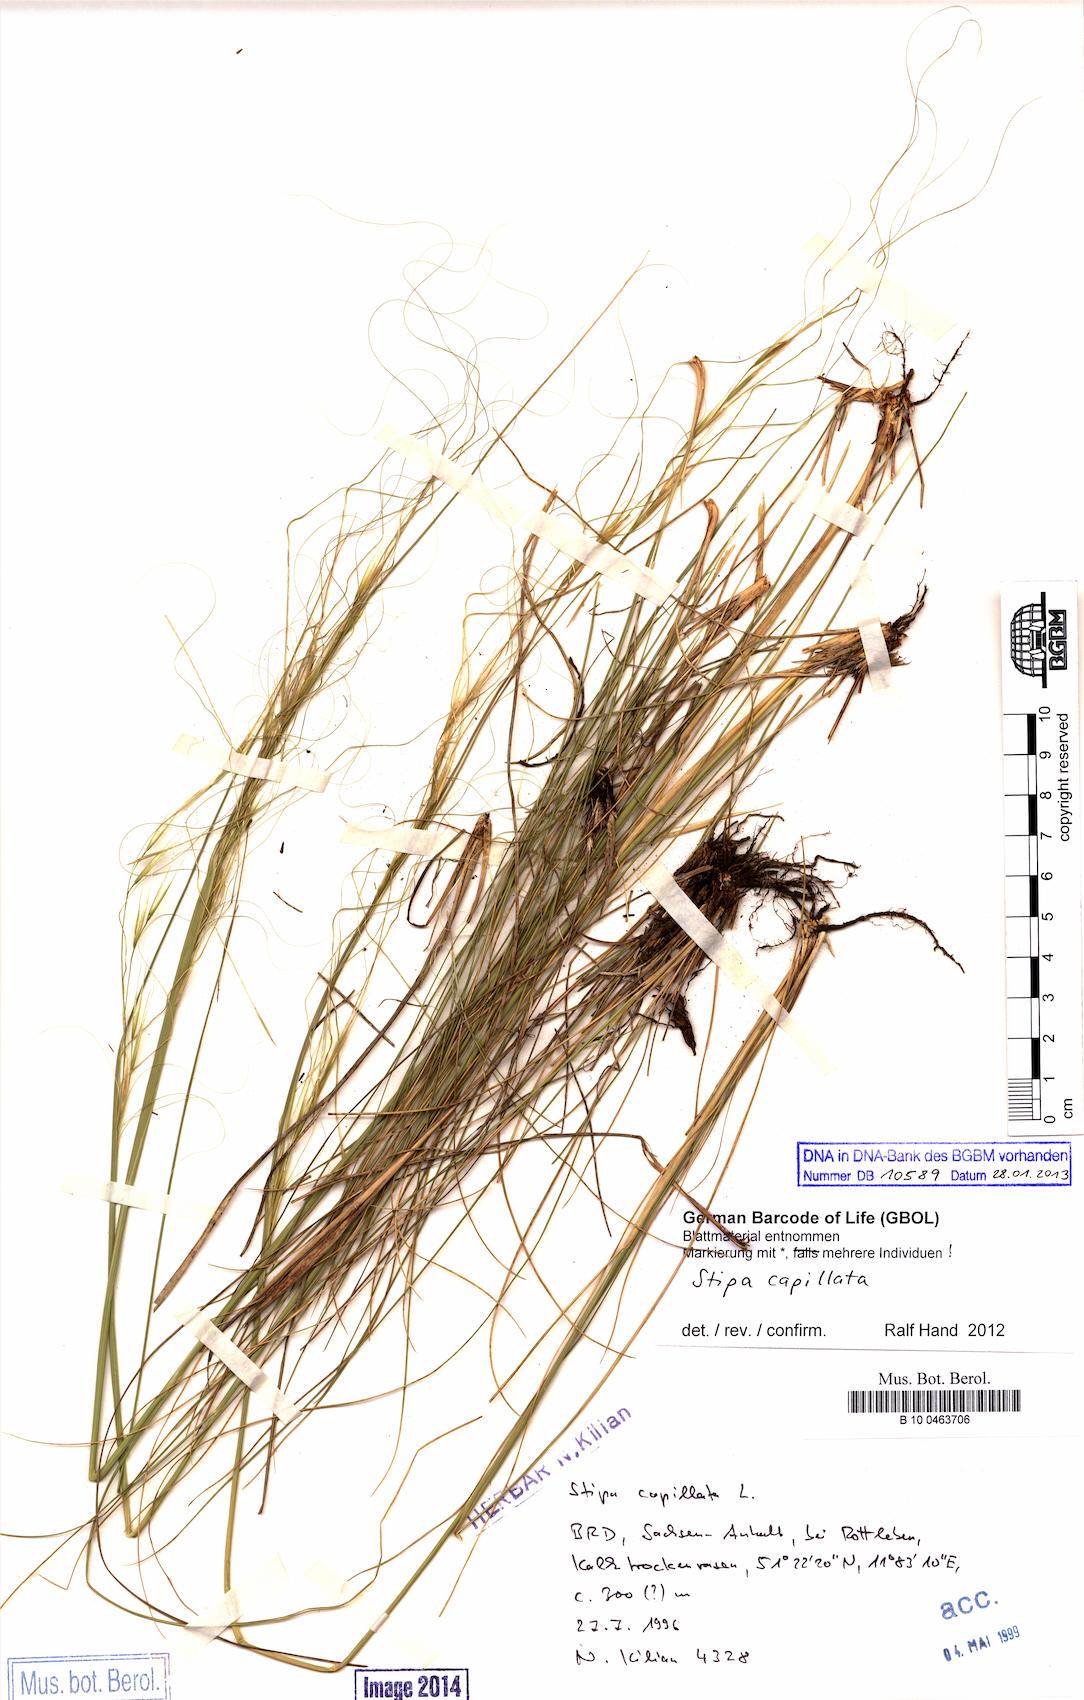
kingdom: Plantae
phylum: Tracheophyta
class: Liliopsida
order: Poales
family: Poaceae
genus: Stipa
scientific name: Stipa capillata
